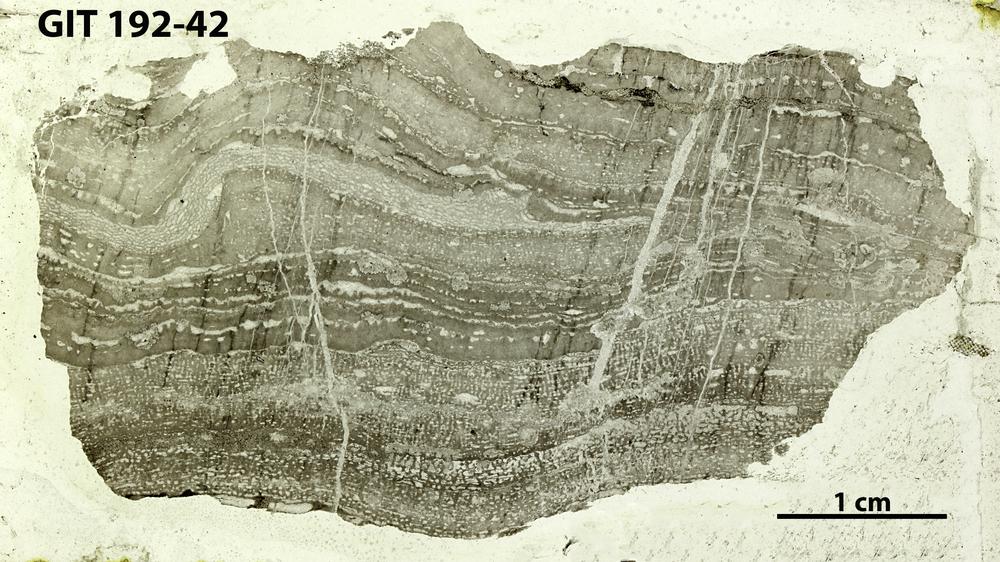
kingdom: Animalia
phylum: Porifera
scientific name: Porifera
